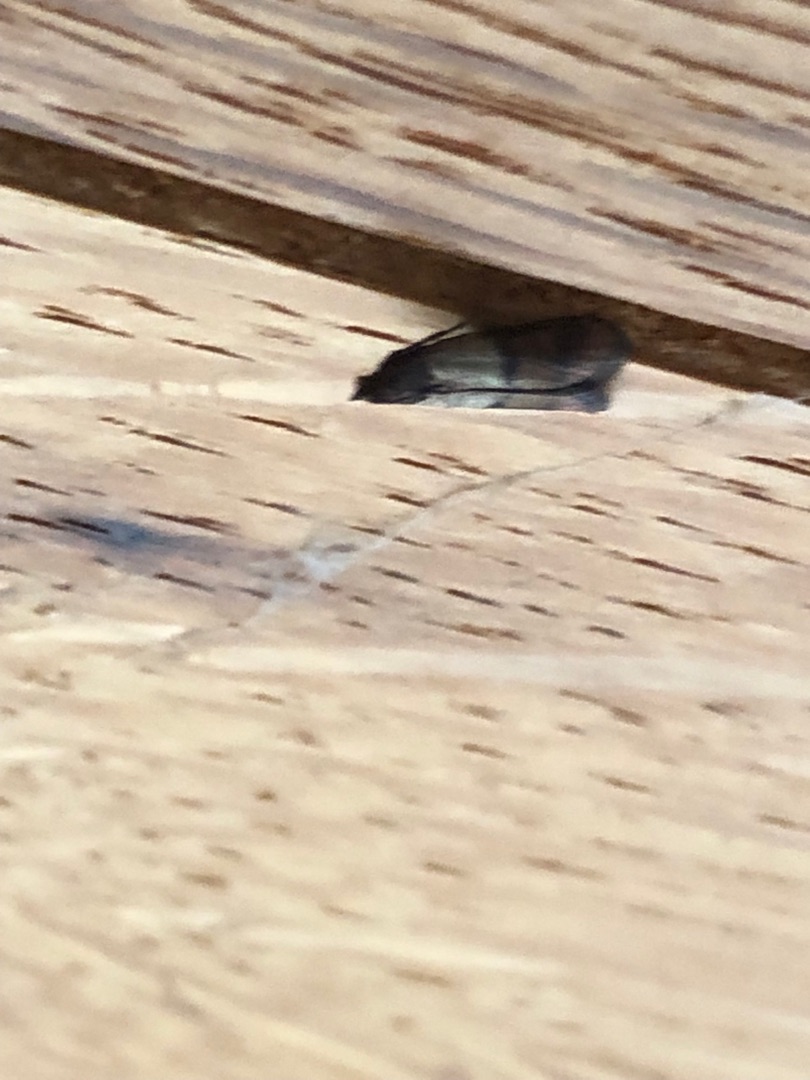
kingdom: Animalia
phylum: Arthropoda
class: Insecta
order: Lepidoptera
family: Pyralidae
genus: Plodia
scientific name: Plodia interpunctella
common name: Tofarvet frømøl
